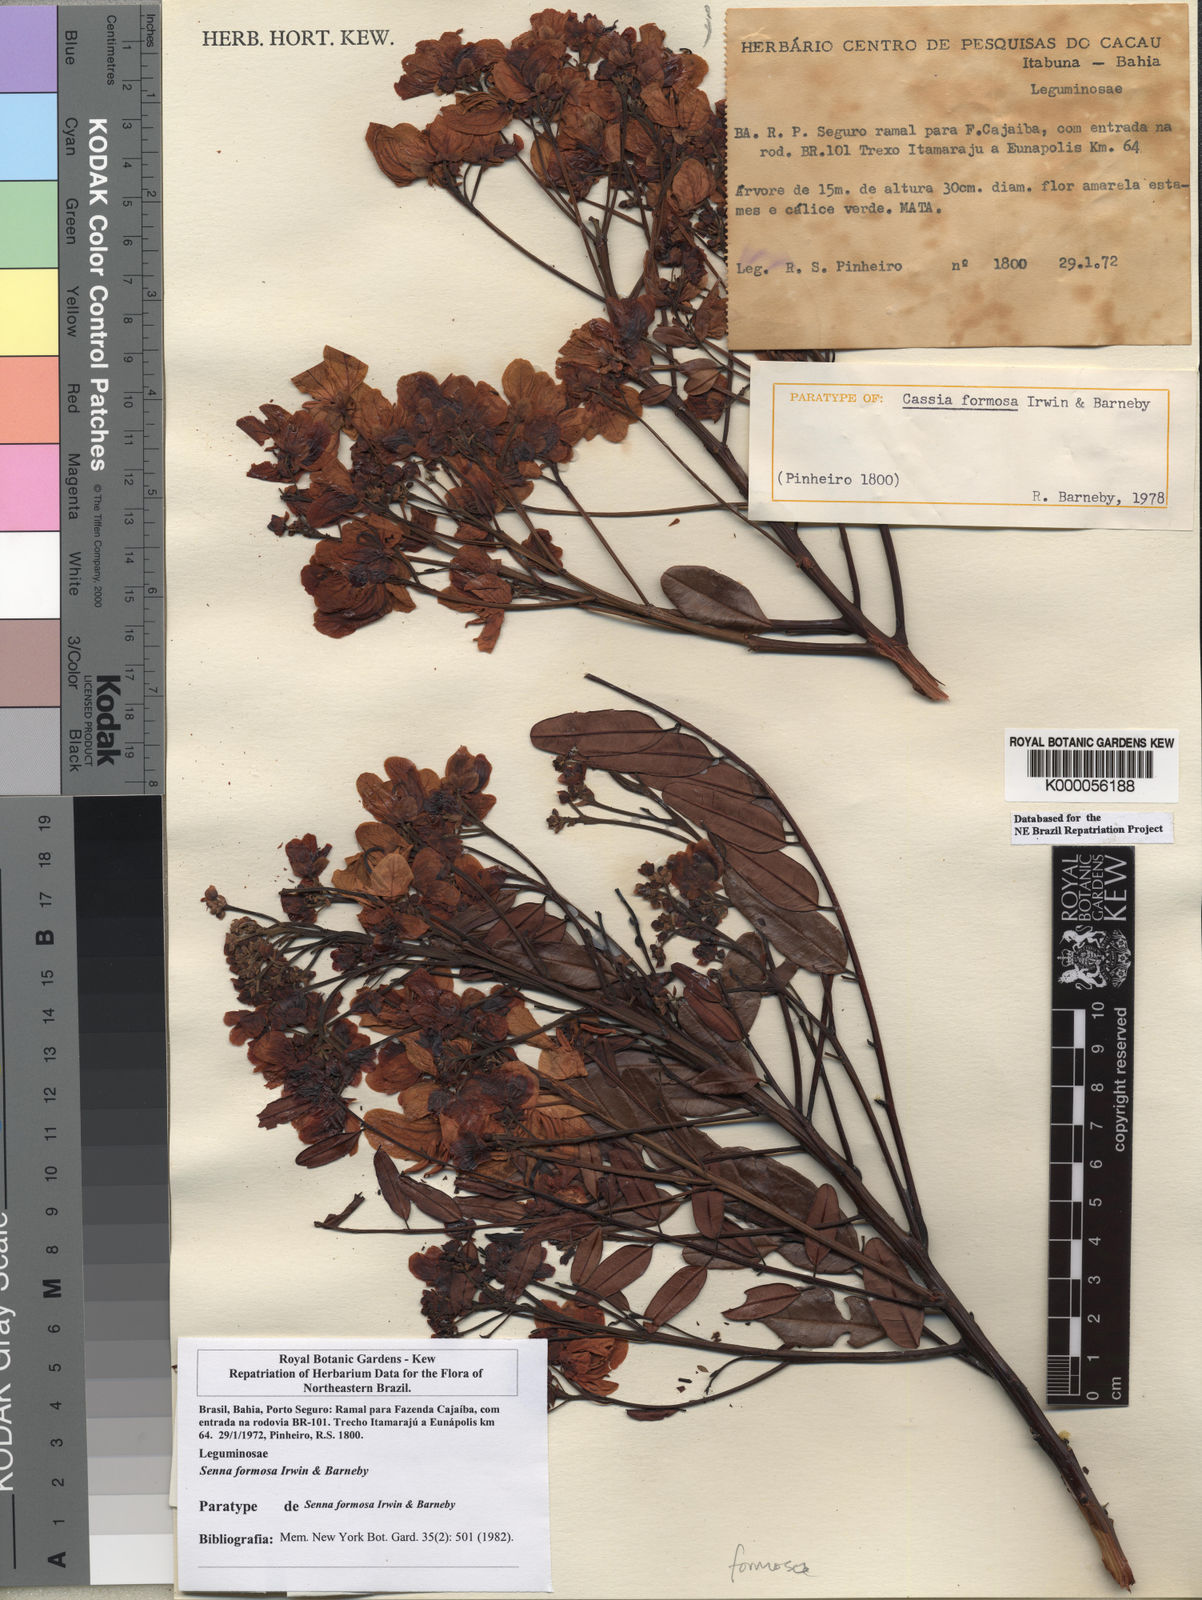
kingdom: Plantae
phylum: Tracheophyta
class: Magnoliopsida
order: Fabales
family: Fabaceae
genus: Senna
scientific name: Senna formosa
